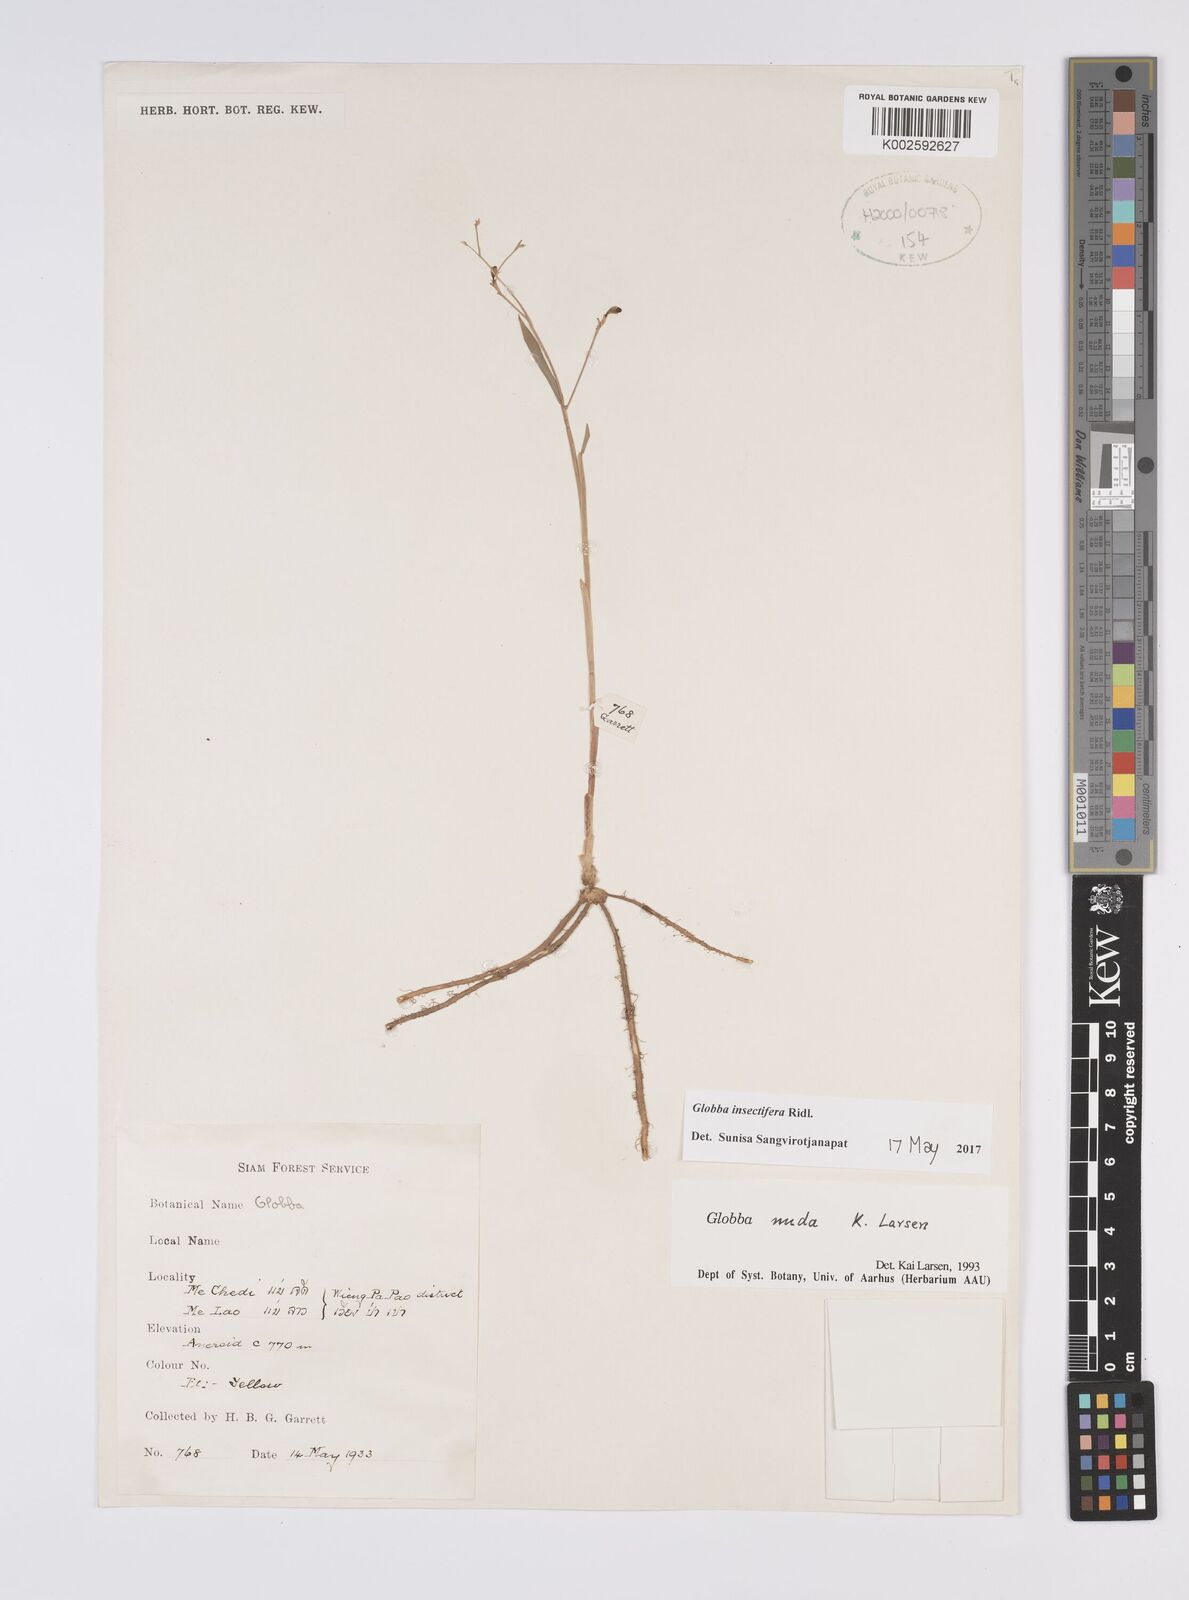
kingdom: Plantae
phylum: Tracheophyta
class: Liliopsida
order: Zingiberales
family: Zingiberaceae
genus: Globba
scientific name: Globba insectifera
